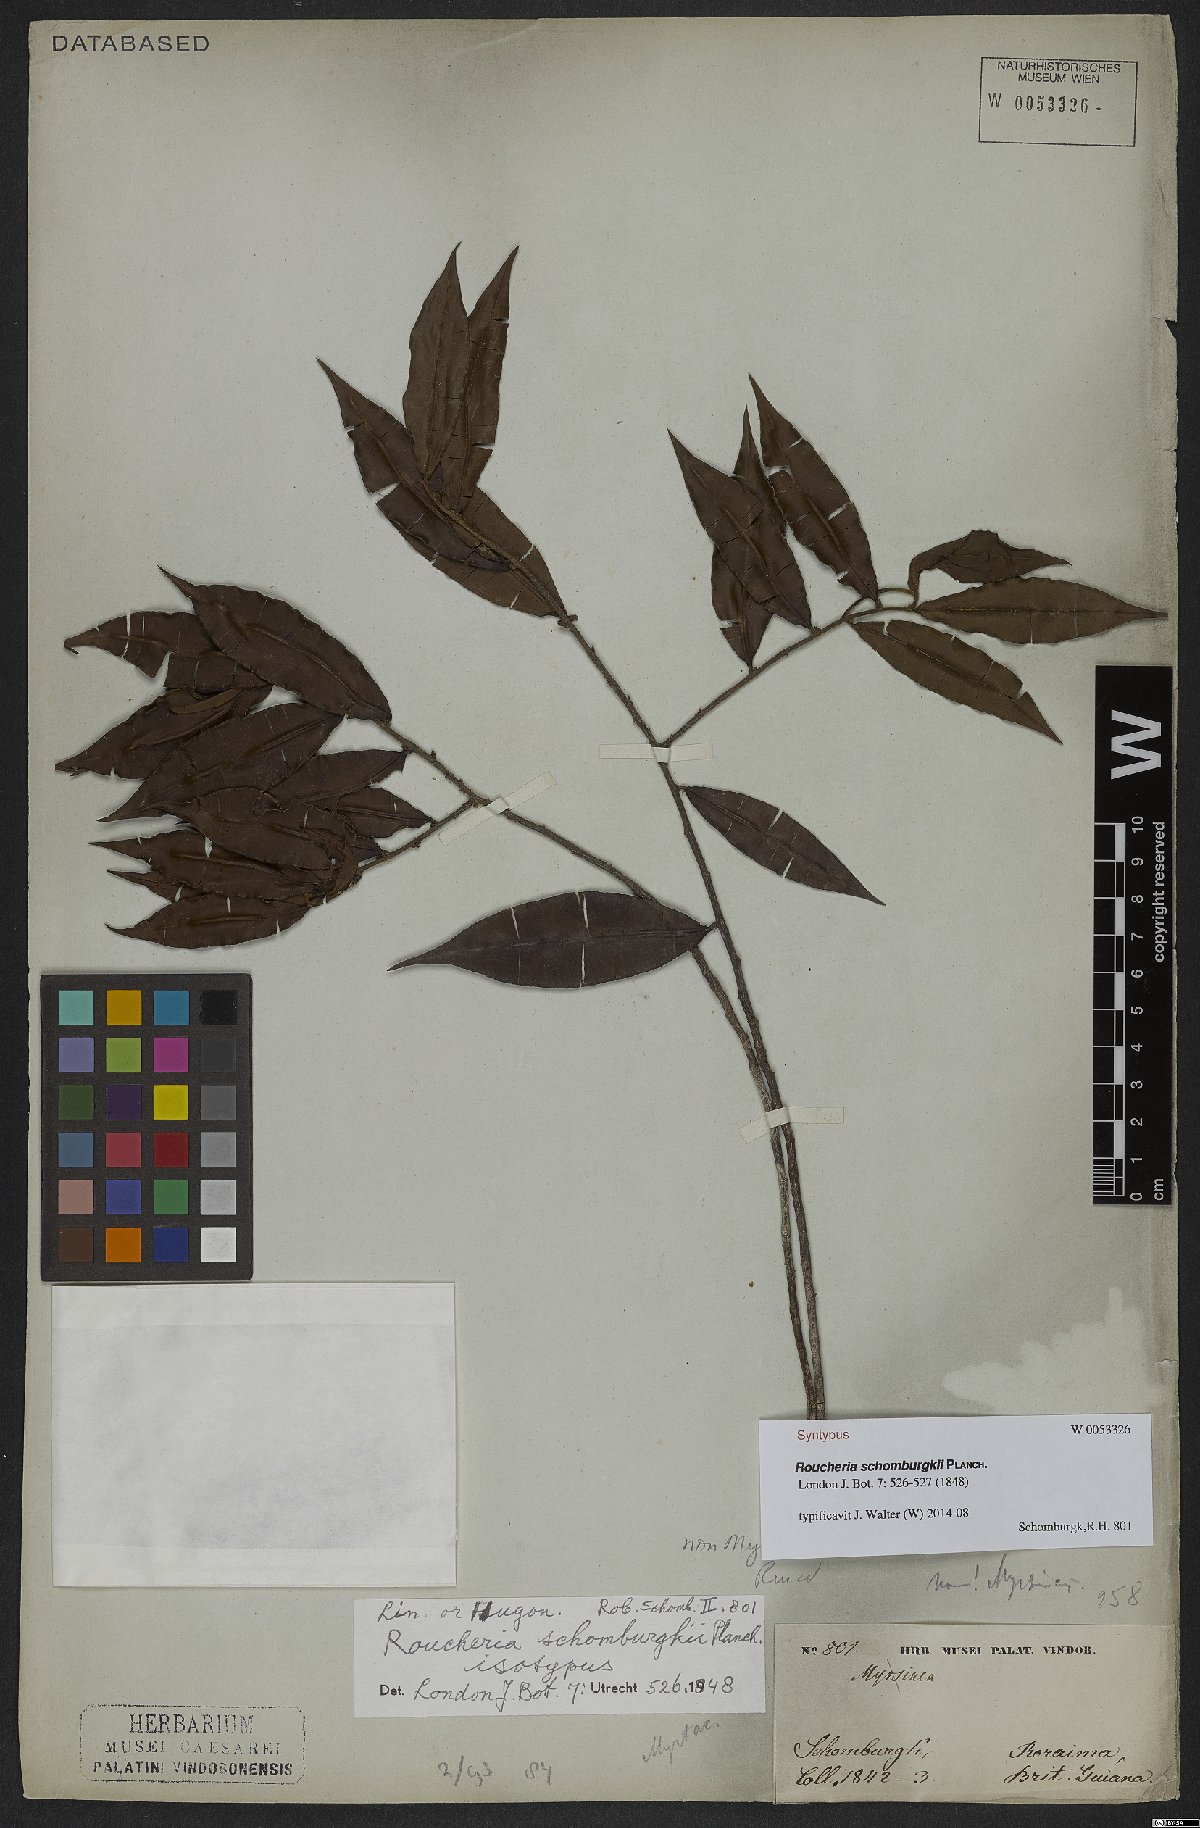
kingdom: Plantae
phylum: Tracheophyta
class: Magnoliopsida
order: Malpighiales
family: Linaceae
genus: Roucheria
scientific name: Roucheria schomburgkii
